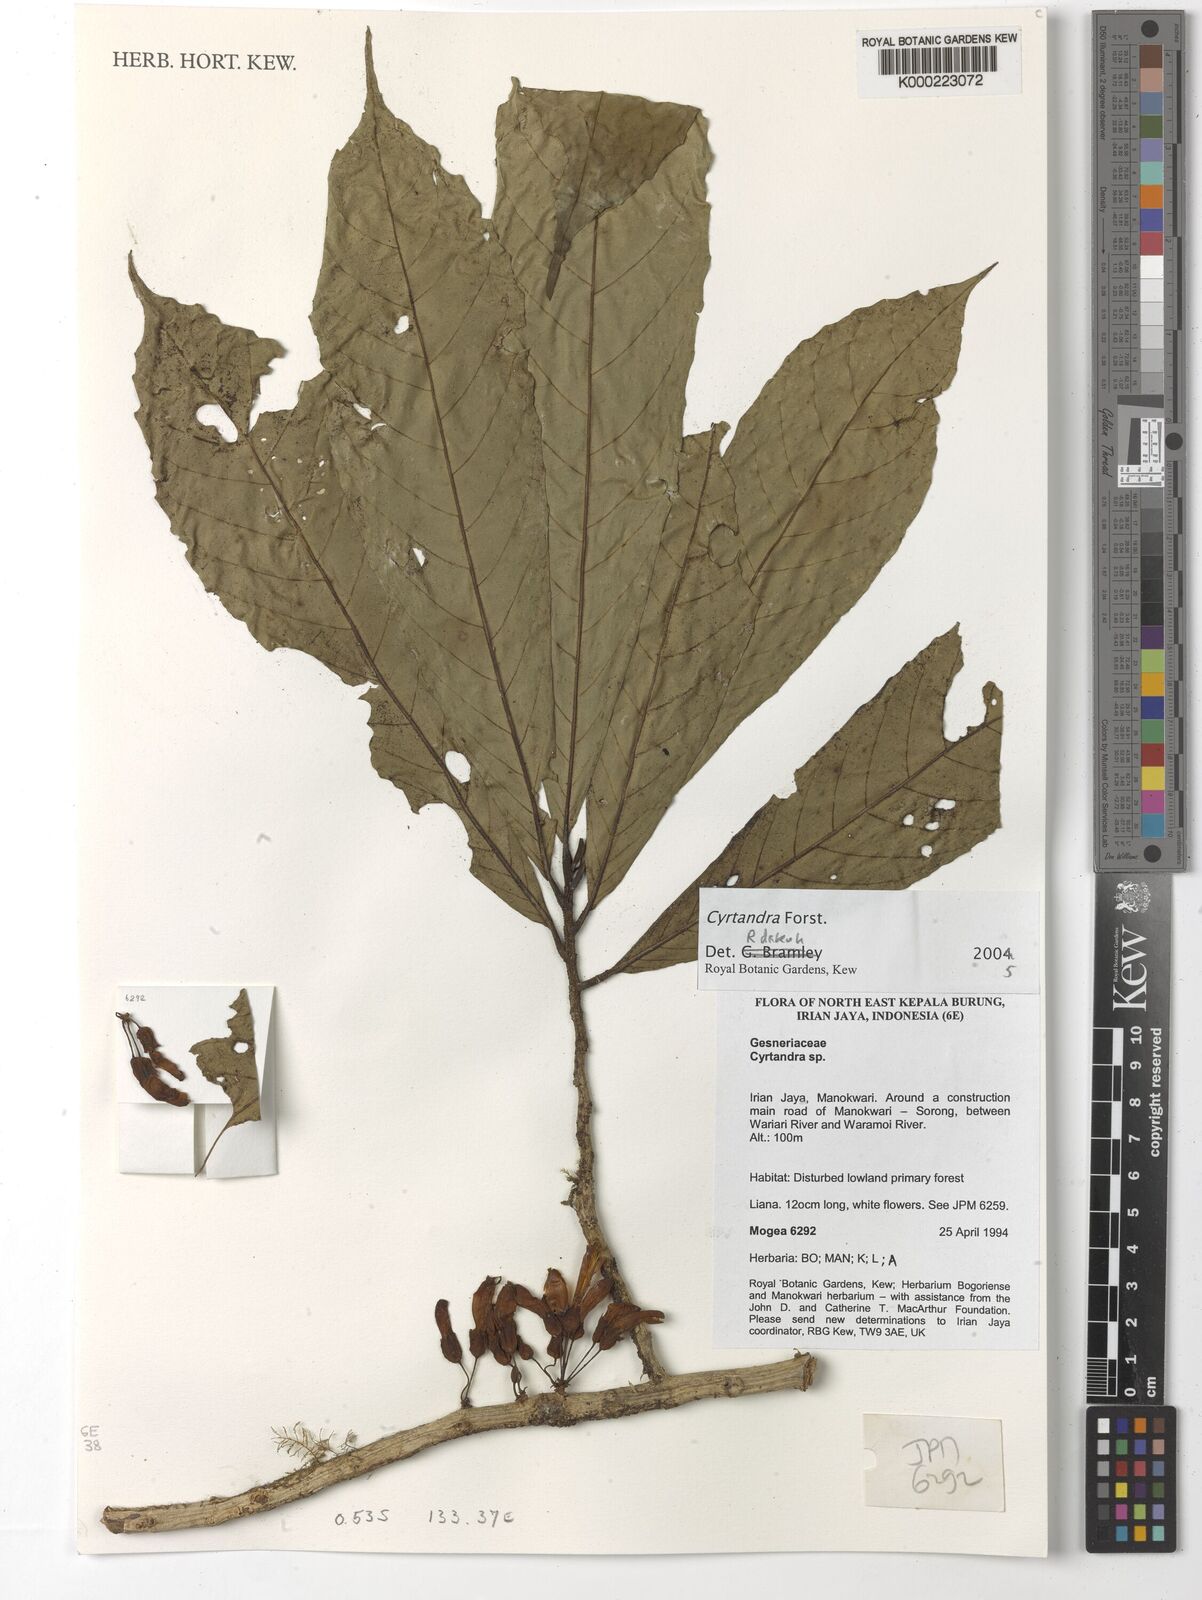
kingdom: Plantae
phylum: Tracheophyta
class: Magnoliopsida
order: Lamiales
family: Gesneriaceae
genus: Cyrtandra
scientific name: Cyrtandra
